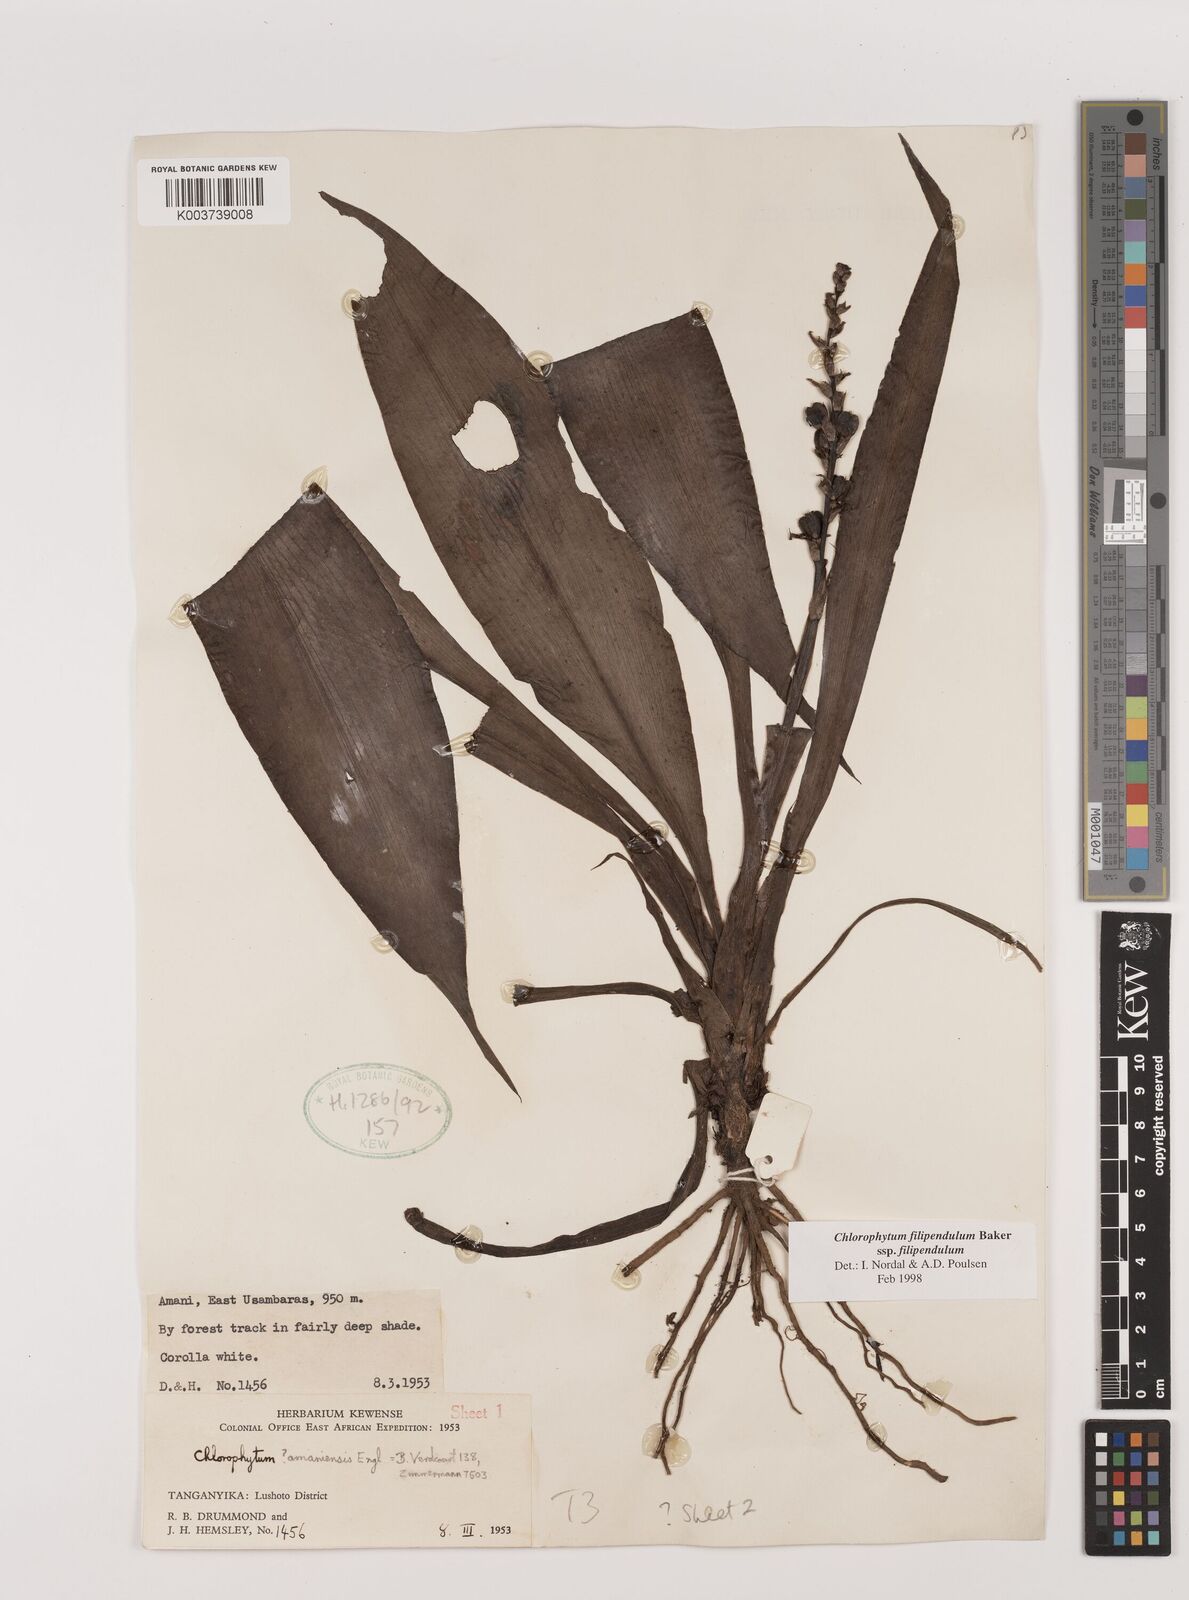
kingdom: Plantae
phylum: Tracheophyta
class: Liliopsida
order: Asparagales
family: Asparagaceae
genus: Chlorophytum
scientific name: Chlorophytum filipendulum
